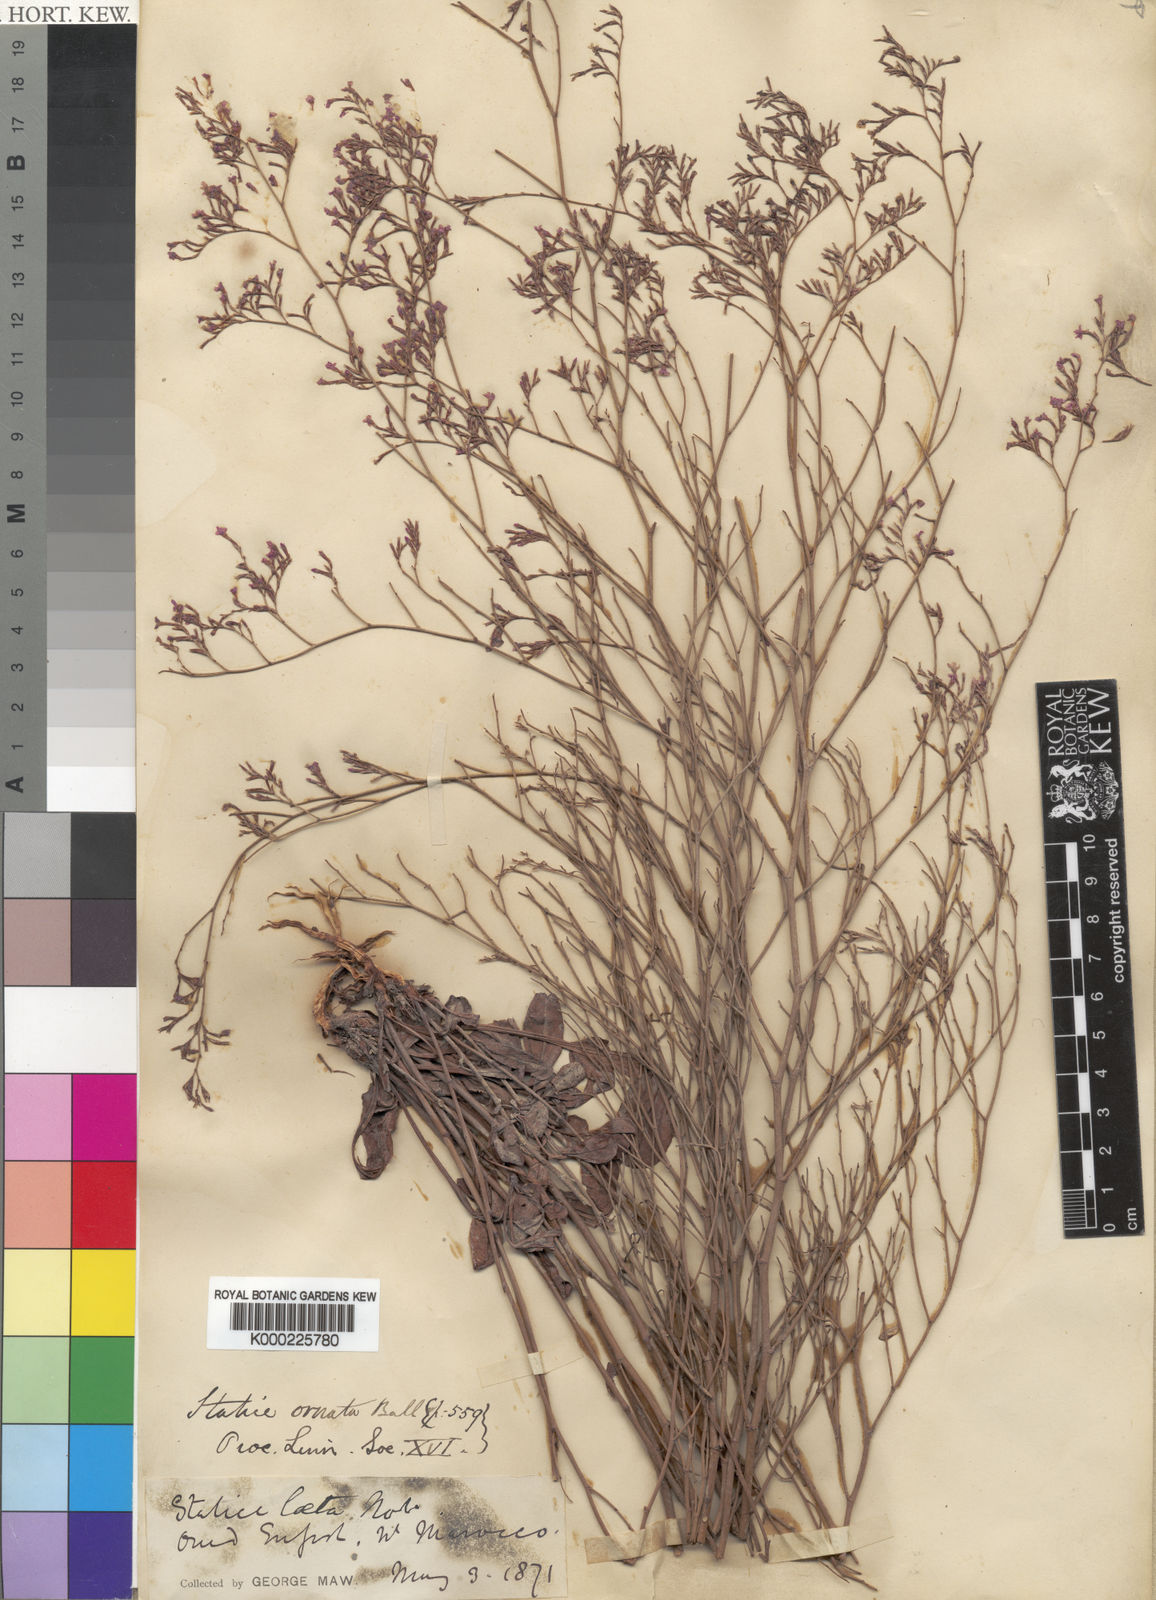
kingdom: Plantae
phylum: Tracheophyta
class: Magnoliopsida
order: Caryophyllales
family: Plumbaginaceae
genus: Limonium
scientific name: Limonium ornatum
